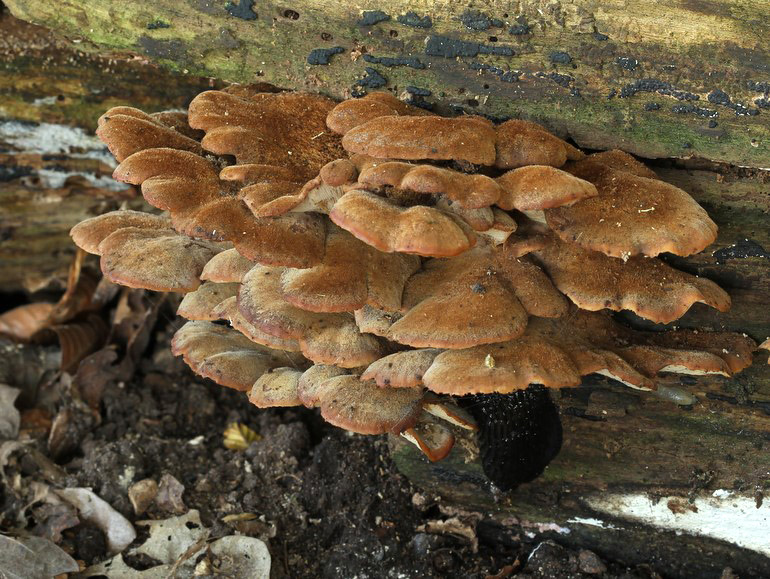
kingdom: Fungi
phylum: Basidiomycota
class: Agaricomycetes
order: Russulales
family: Auriscalpiaceae
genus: Lentinellus
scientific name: Lentinellus ursinus
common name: børstehåret savbladhat
